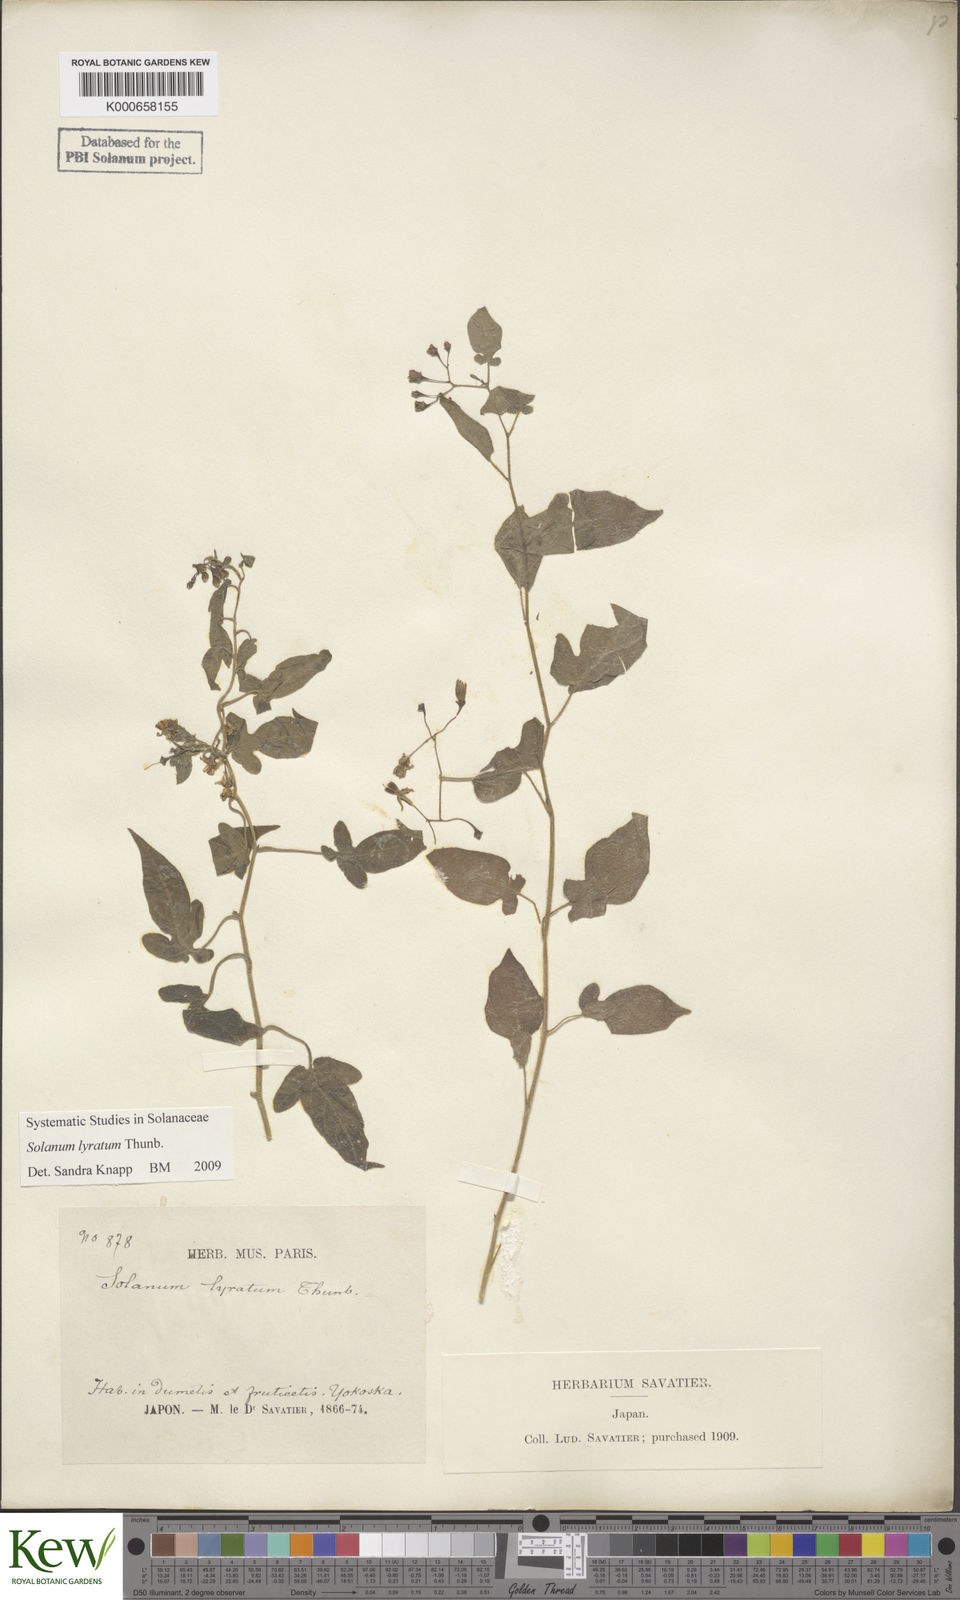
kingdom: Plantae
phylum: Tracheophyta
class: Magnoliopsida
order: Solanales
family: Solanaceae
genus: Solanum
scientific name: Solanum lyratum
